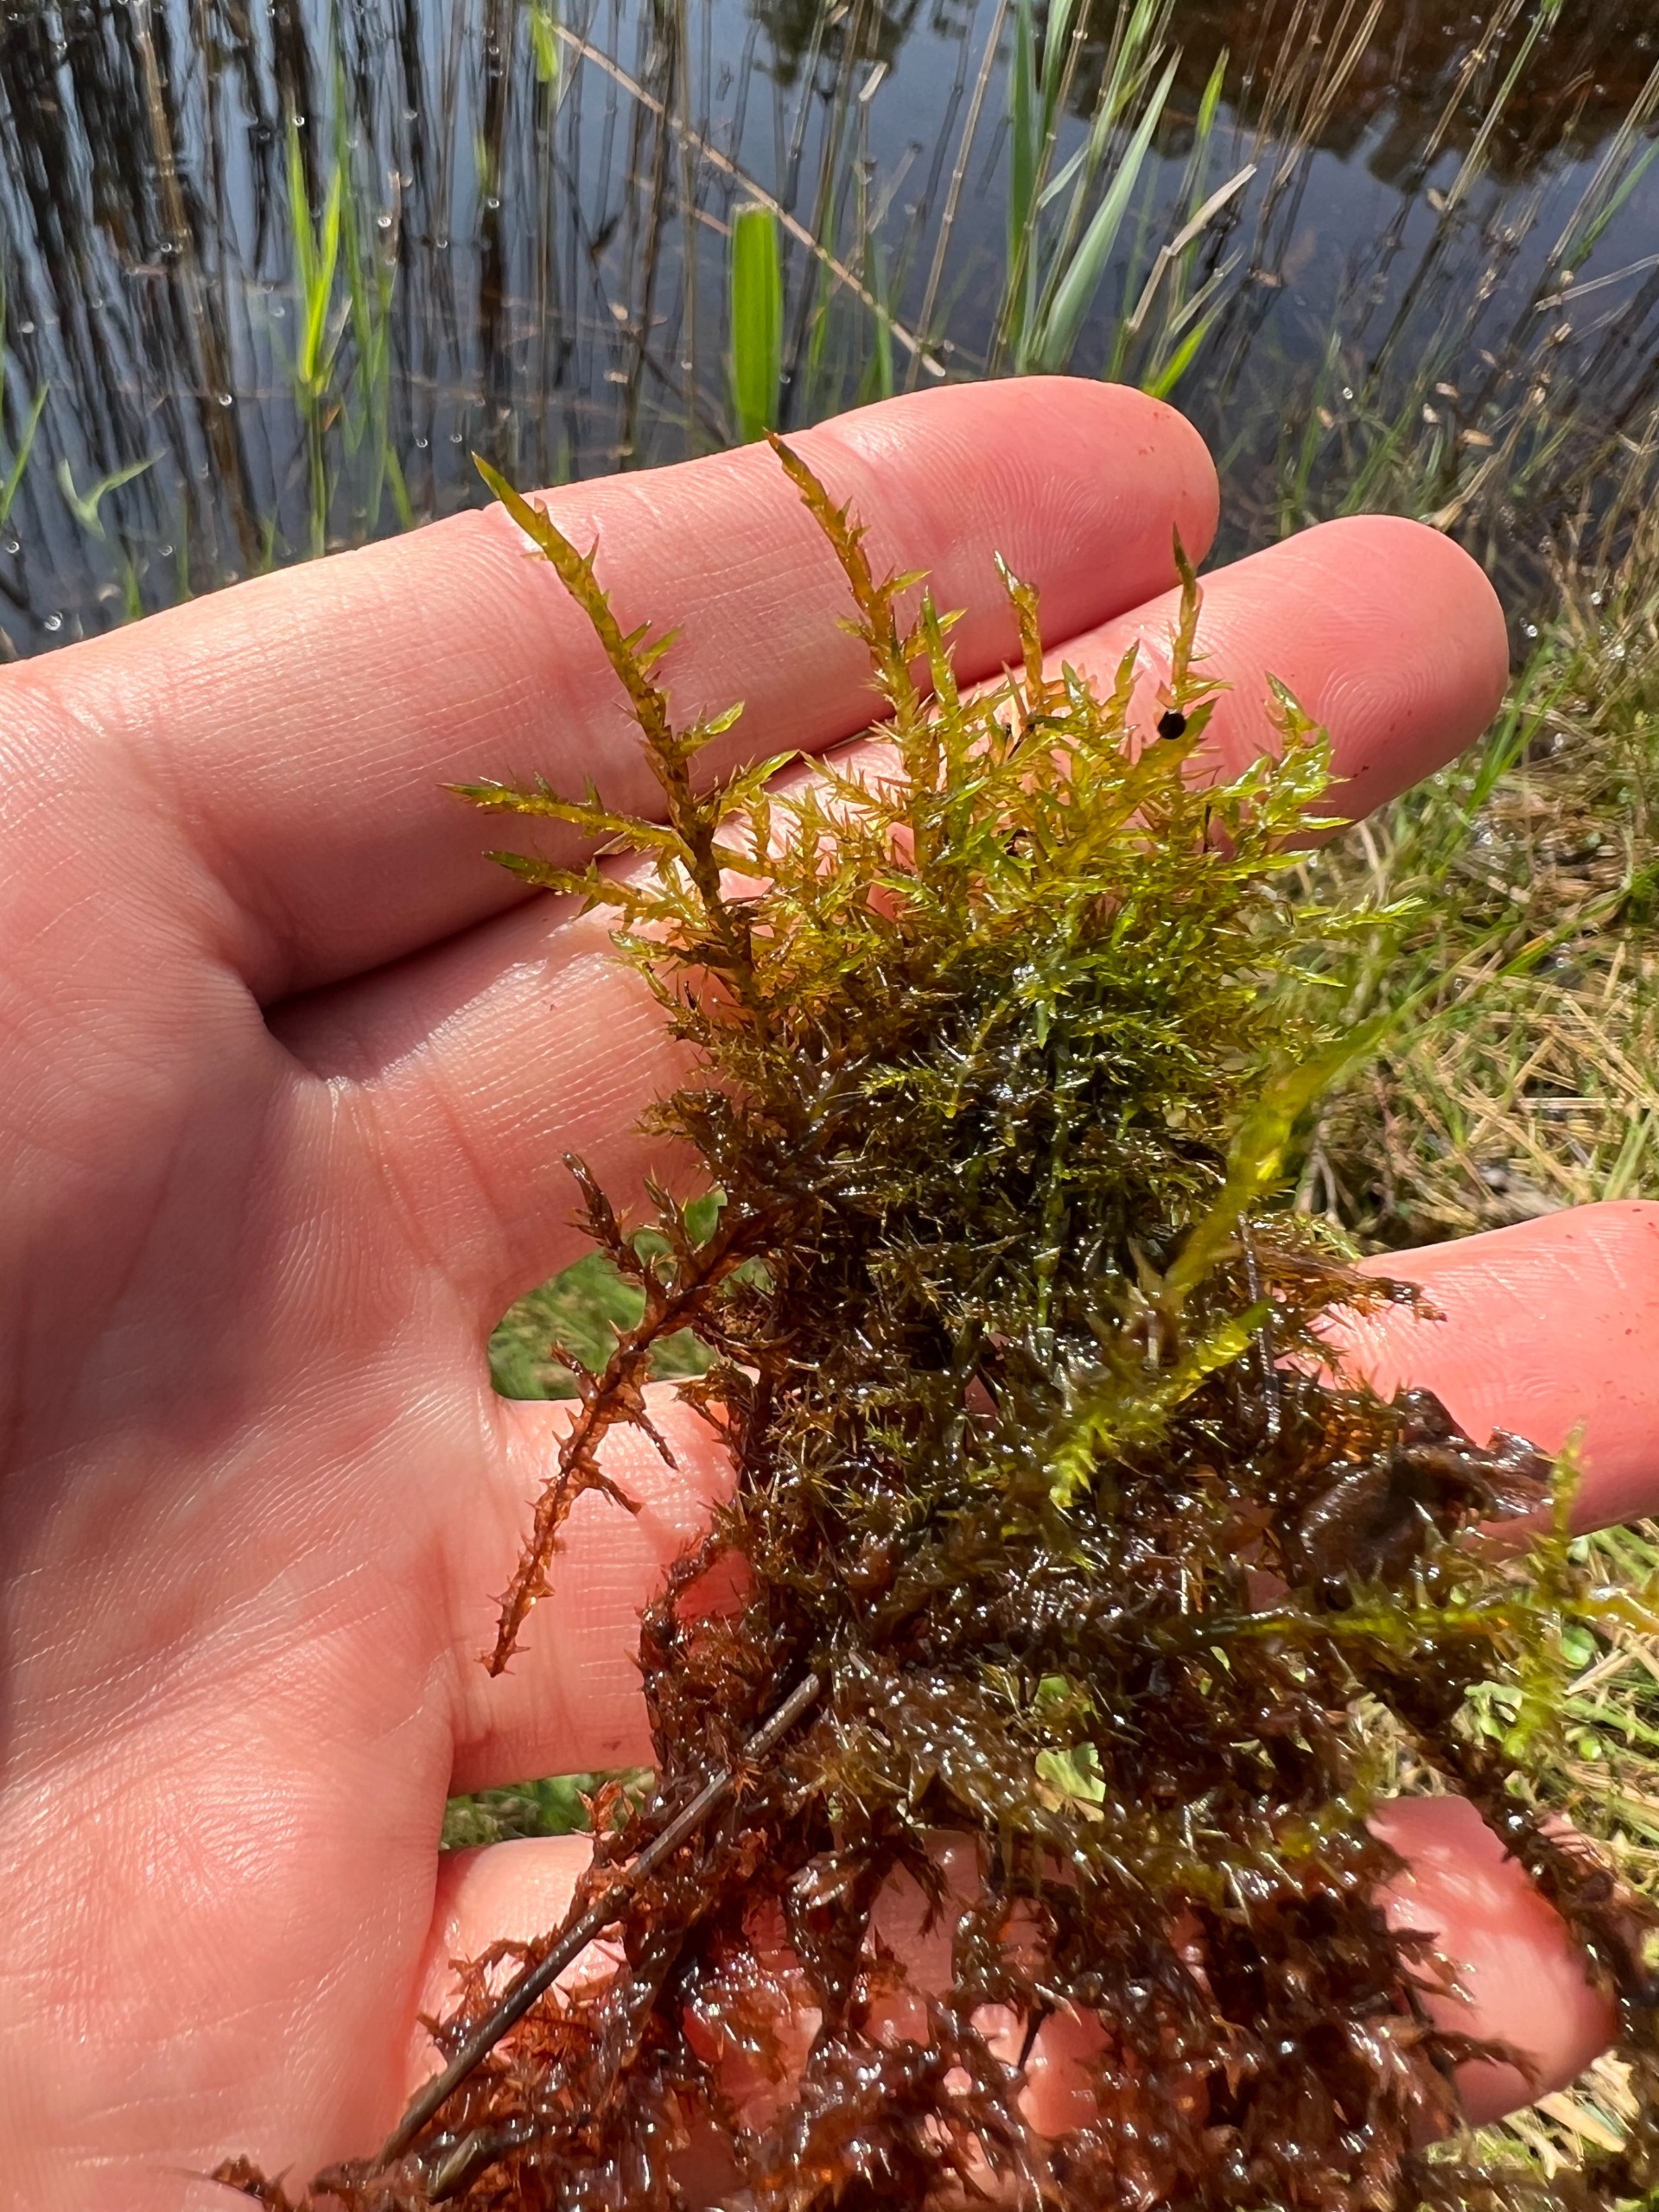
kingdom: Plantae
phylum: Bryophyta
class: Bryopsida
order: Hypnales
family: Pylaisiaceae
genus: Calliergonella
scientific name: Calliergonella cuspidata
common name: Spids spydmos
